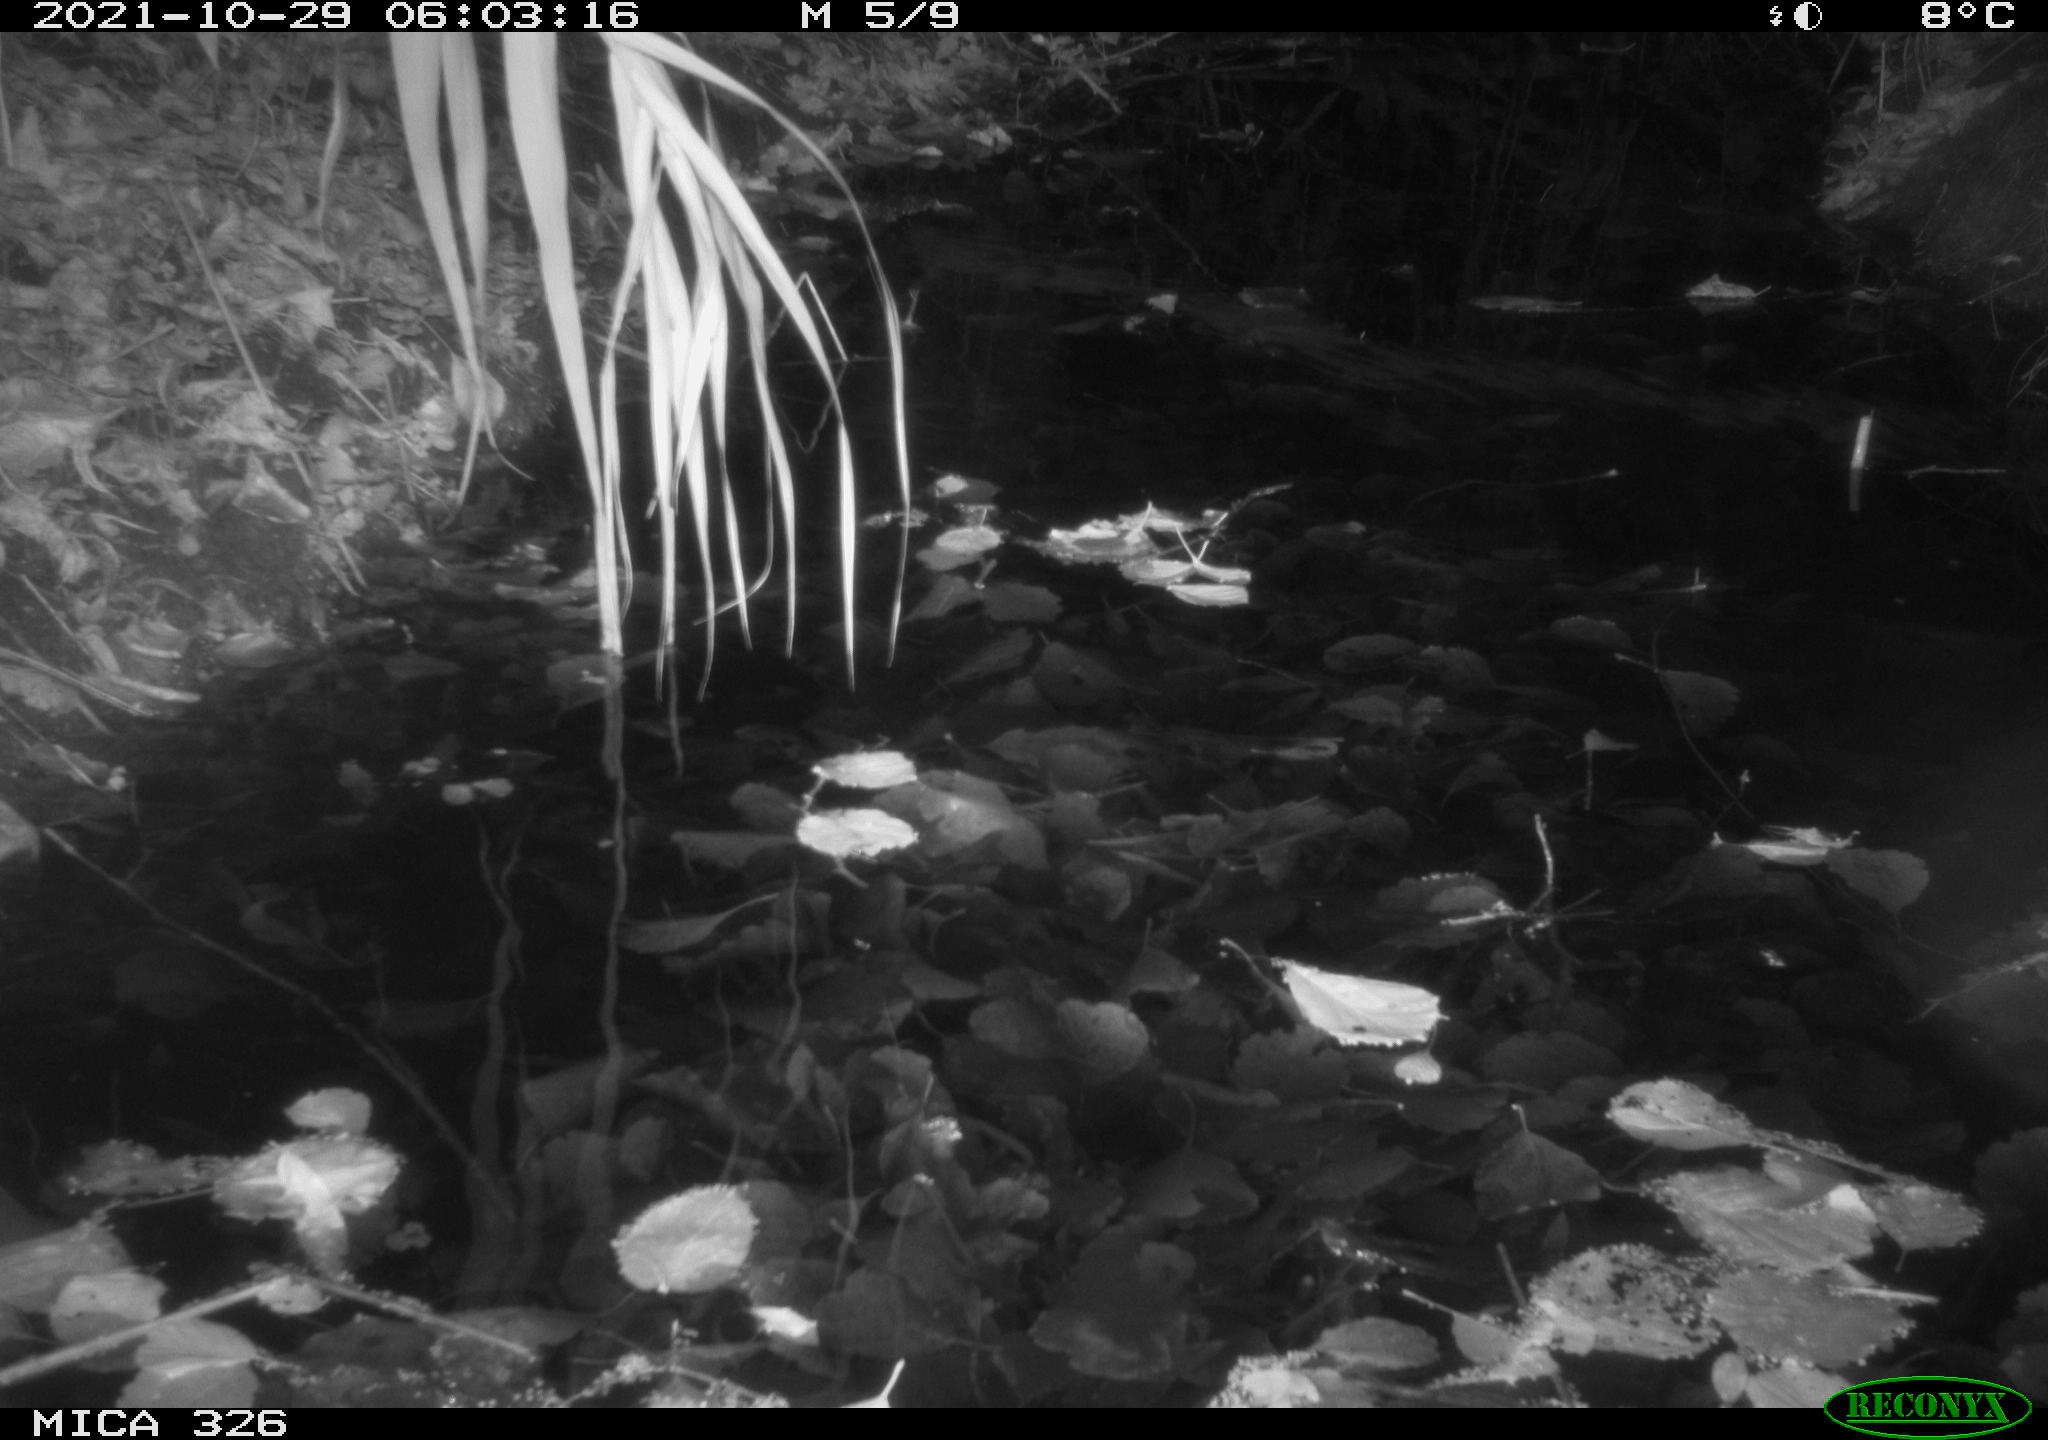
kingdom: Animalia
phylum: Chordata
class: Mammalia
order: Rodentia
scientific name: Rodentia
